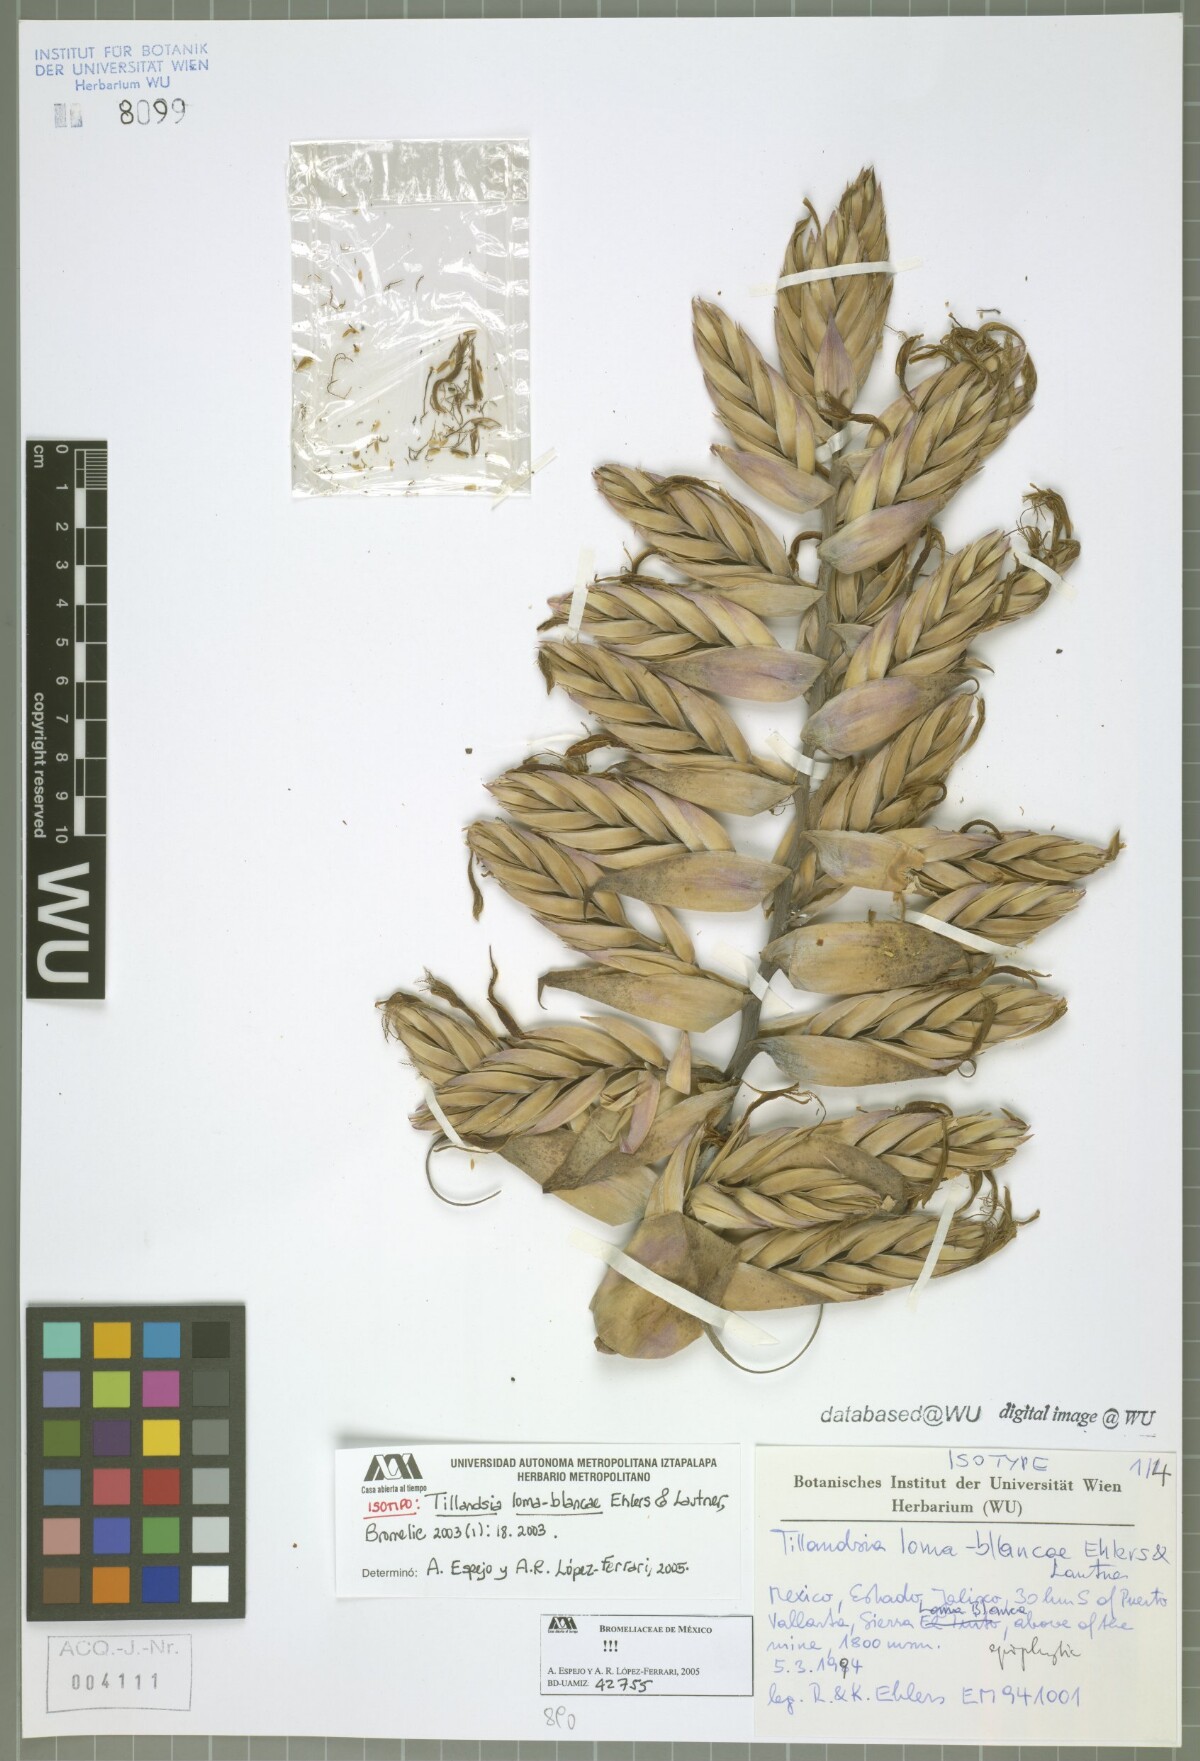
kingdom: Plantae
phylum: Tracheophyta
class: Liliopsida
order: Poales
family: Bromeliaceae
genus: Tillandsia
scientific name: Tillandsia loma-blancae
